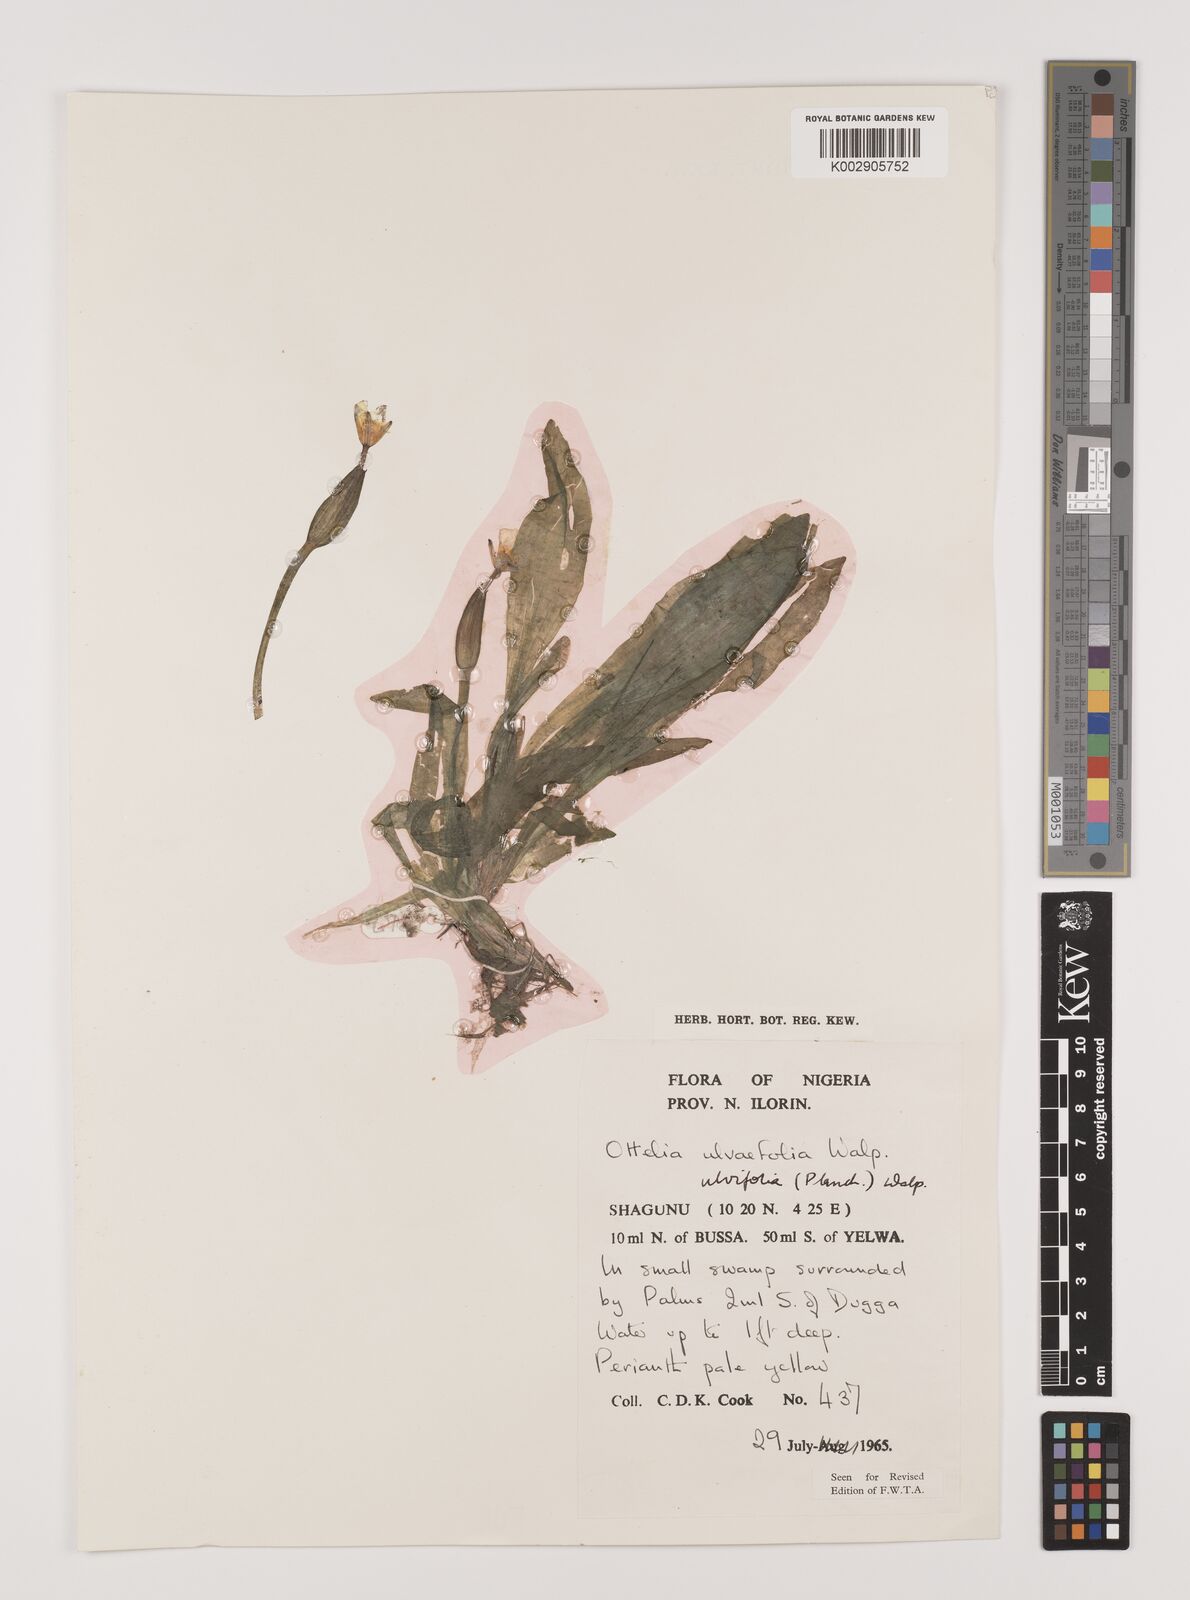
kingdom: Plantae
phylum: Tracheophyta
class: Liliopsida
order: Alismatales
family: Hydrocharitaceae
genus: Ottelia
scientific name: Ottelia ulvifolia
